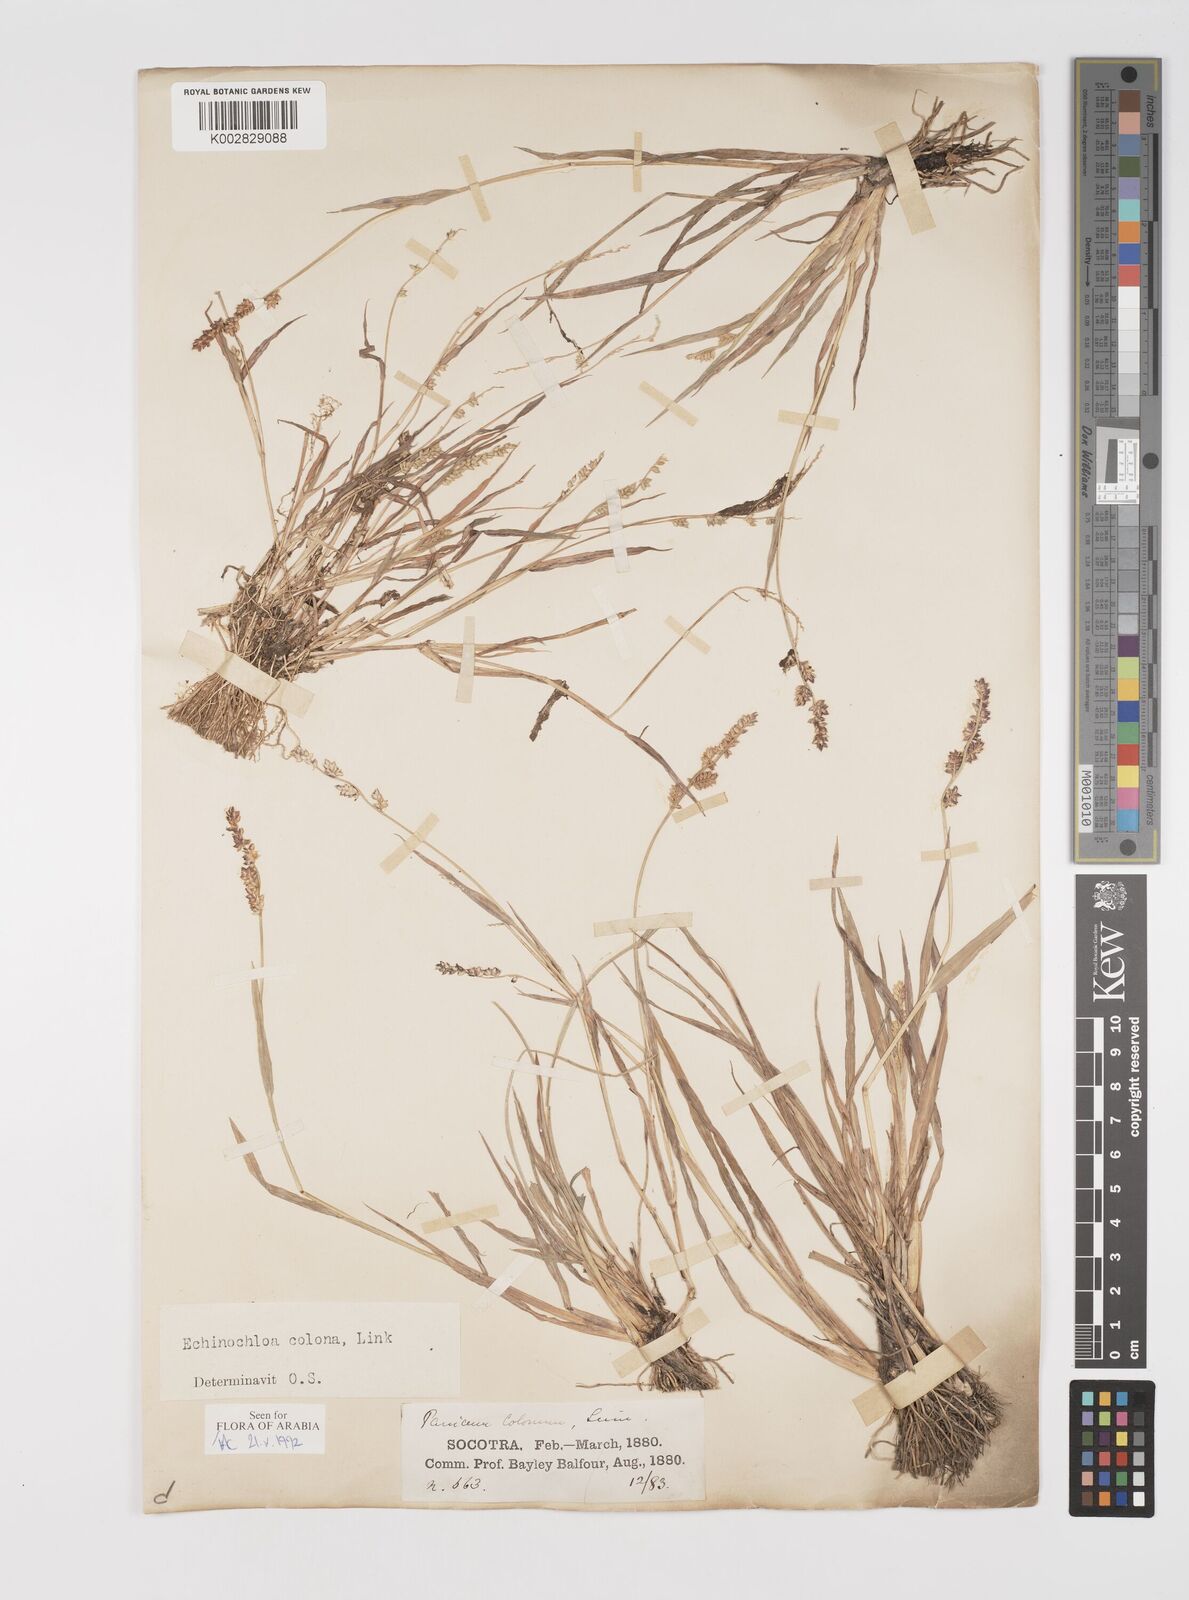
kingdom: Plantae
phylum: Tracheophyta
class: Liliopsida
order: Poales
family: Poaceae
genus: Echinochloa
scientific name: Echinochloa colonum
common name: Jungle rice
